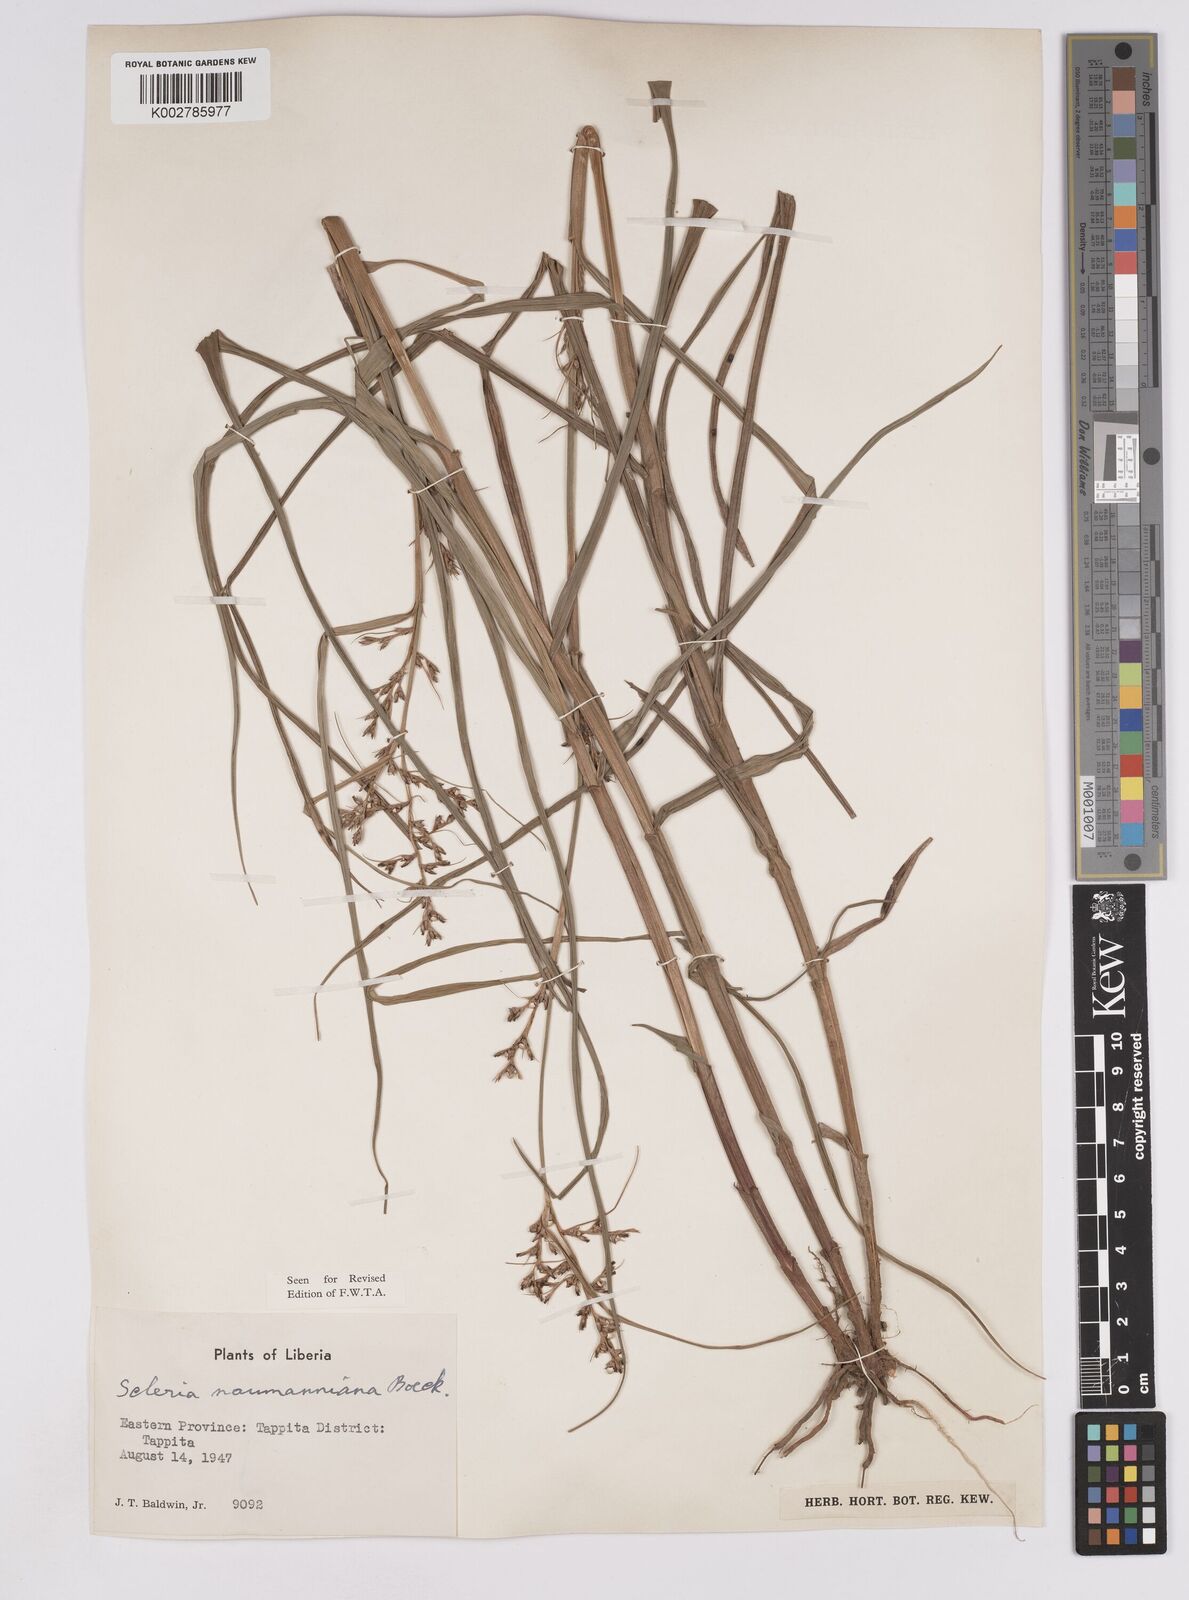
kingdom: Plantae
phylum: Tracheophyta
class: Liliopsida
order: Poales
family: Cyperaceae
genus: Scleria
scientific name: Scleria naumanniana
